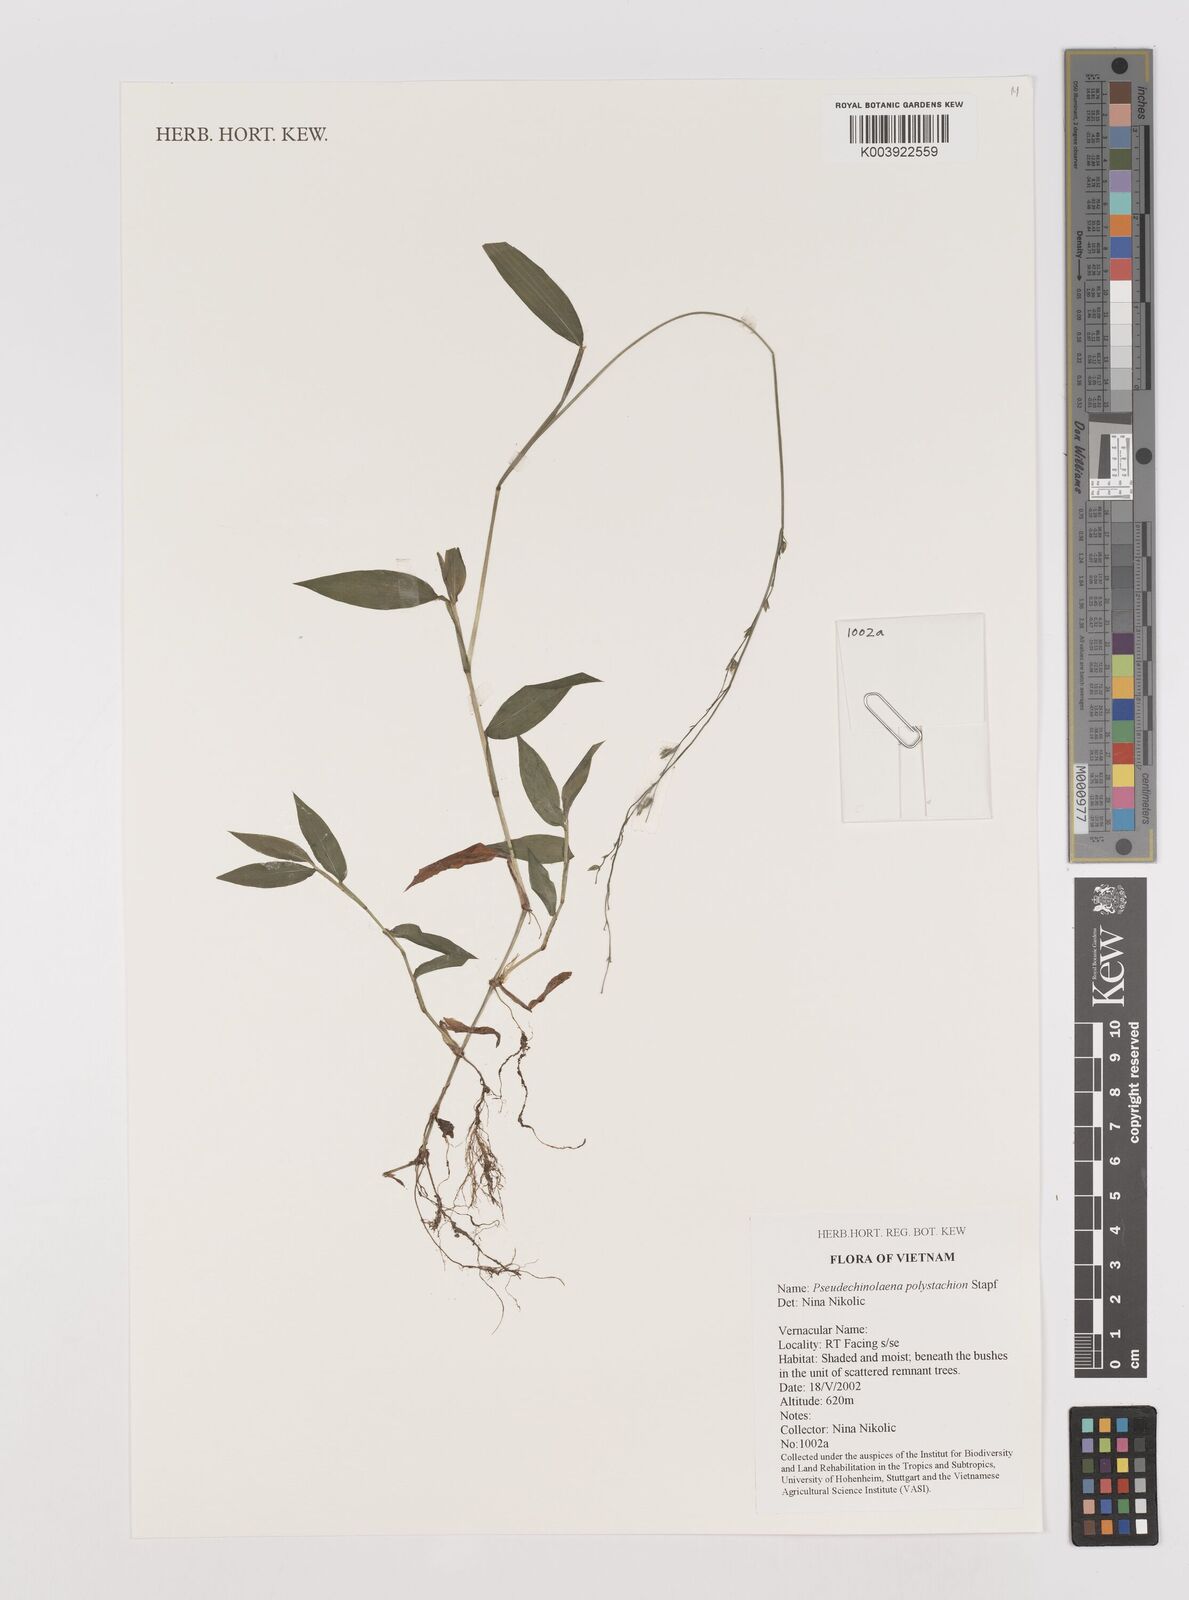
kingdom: Plantae
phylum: Tracheophyta
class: Liliopsida
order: Poales
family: Poaceae
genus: Pseudechinolaena
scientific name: Pseudechinolaena polystachya
